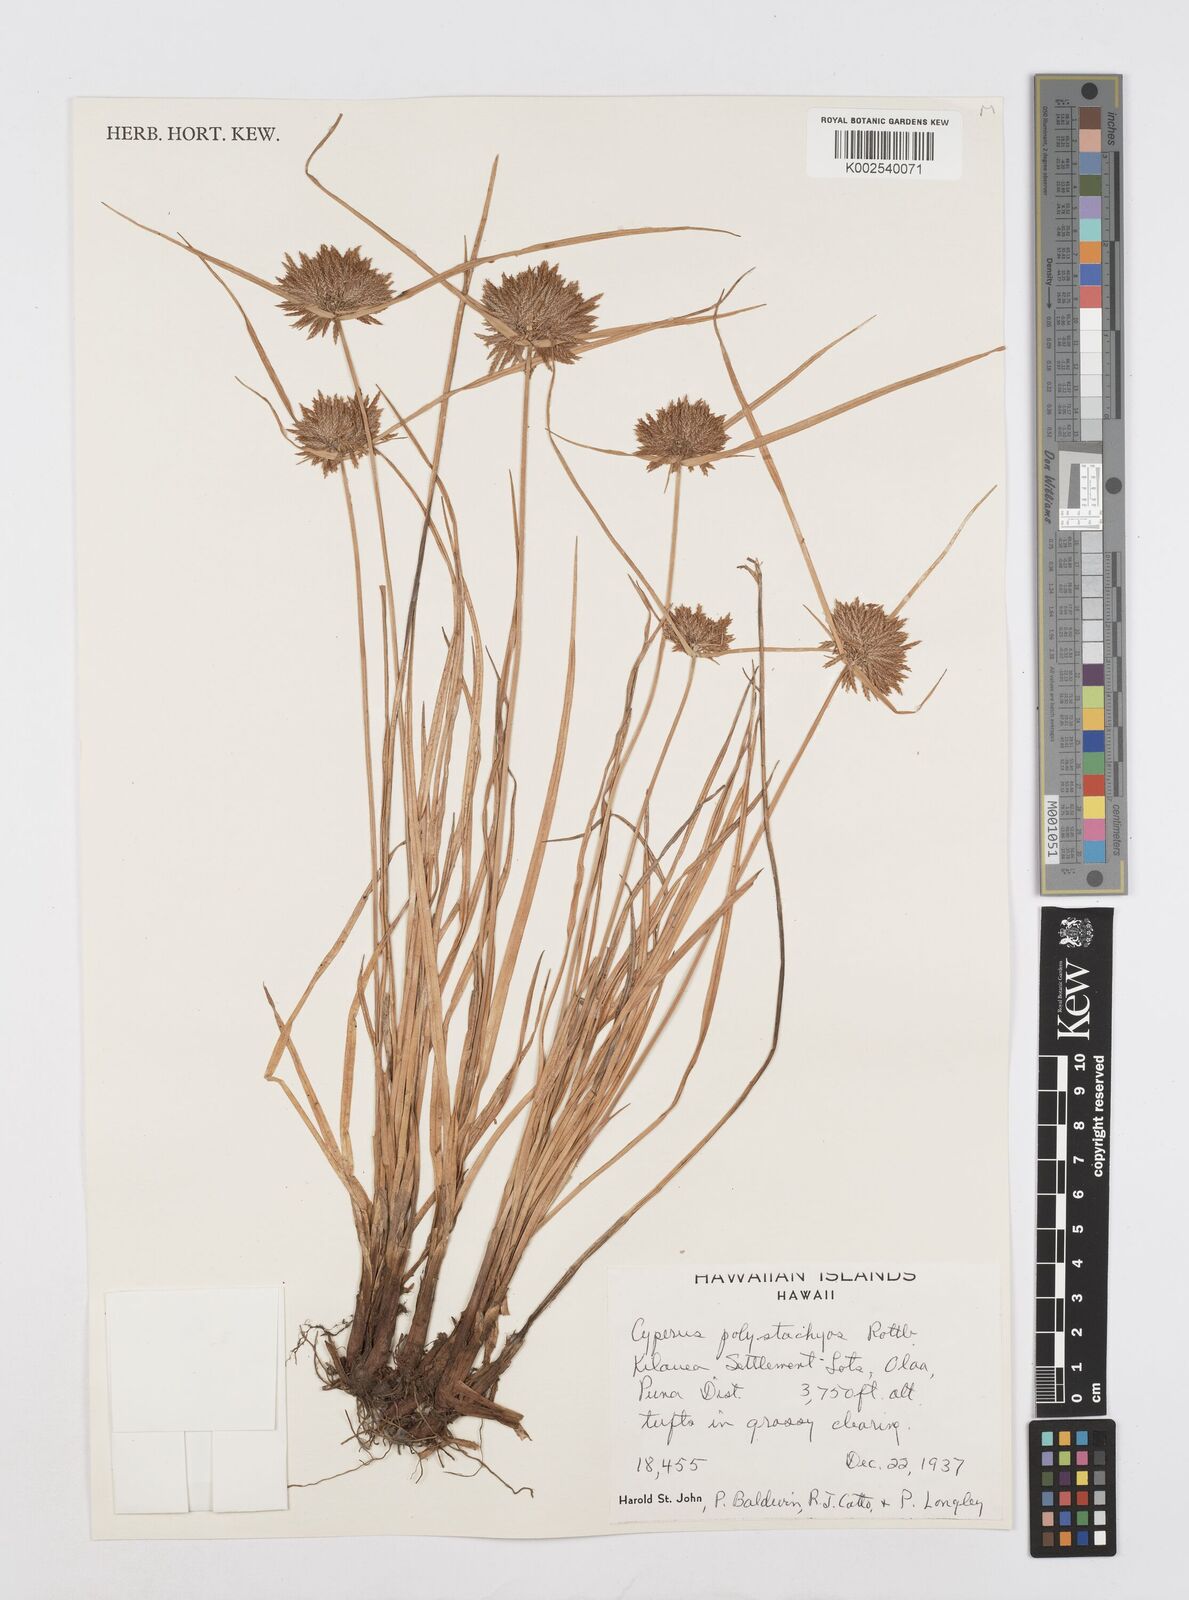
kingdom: Plantae
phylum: Tracheophyta
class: Liliopsida
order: Poales
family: Cyperaceae
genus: Cyperus
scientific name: Cyperus polystachyos
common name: Bunchy flat sedge
